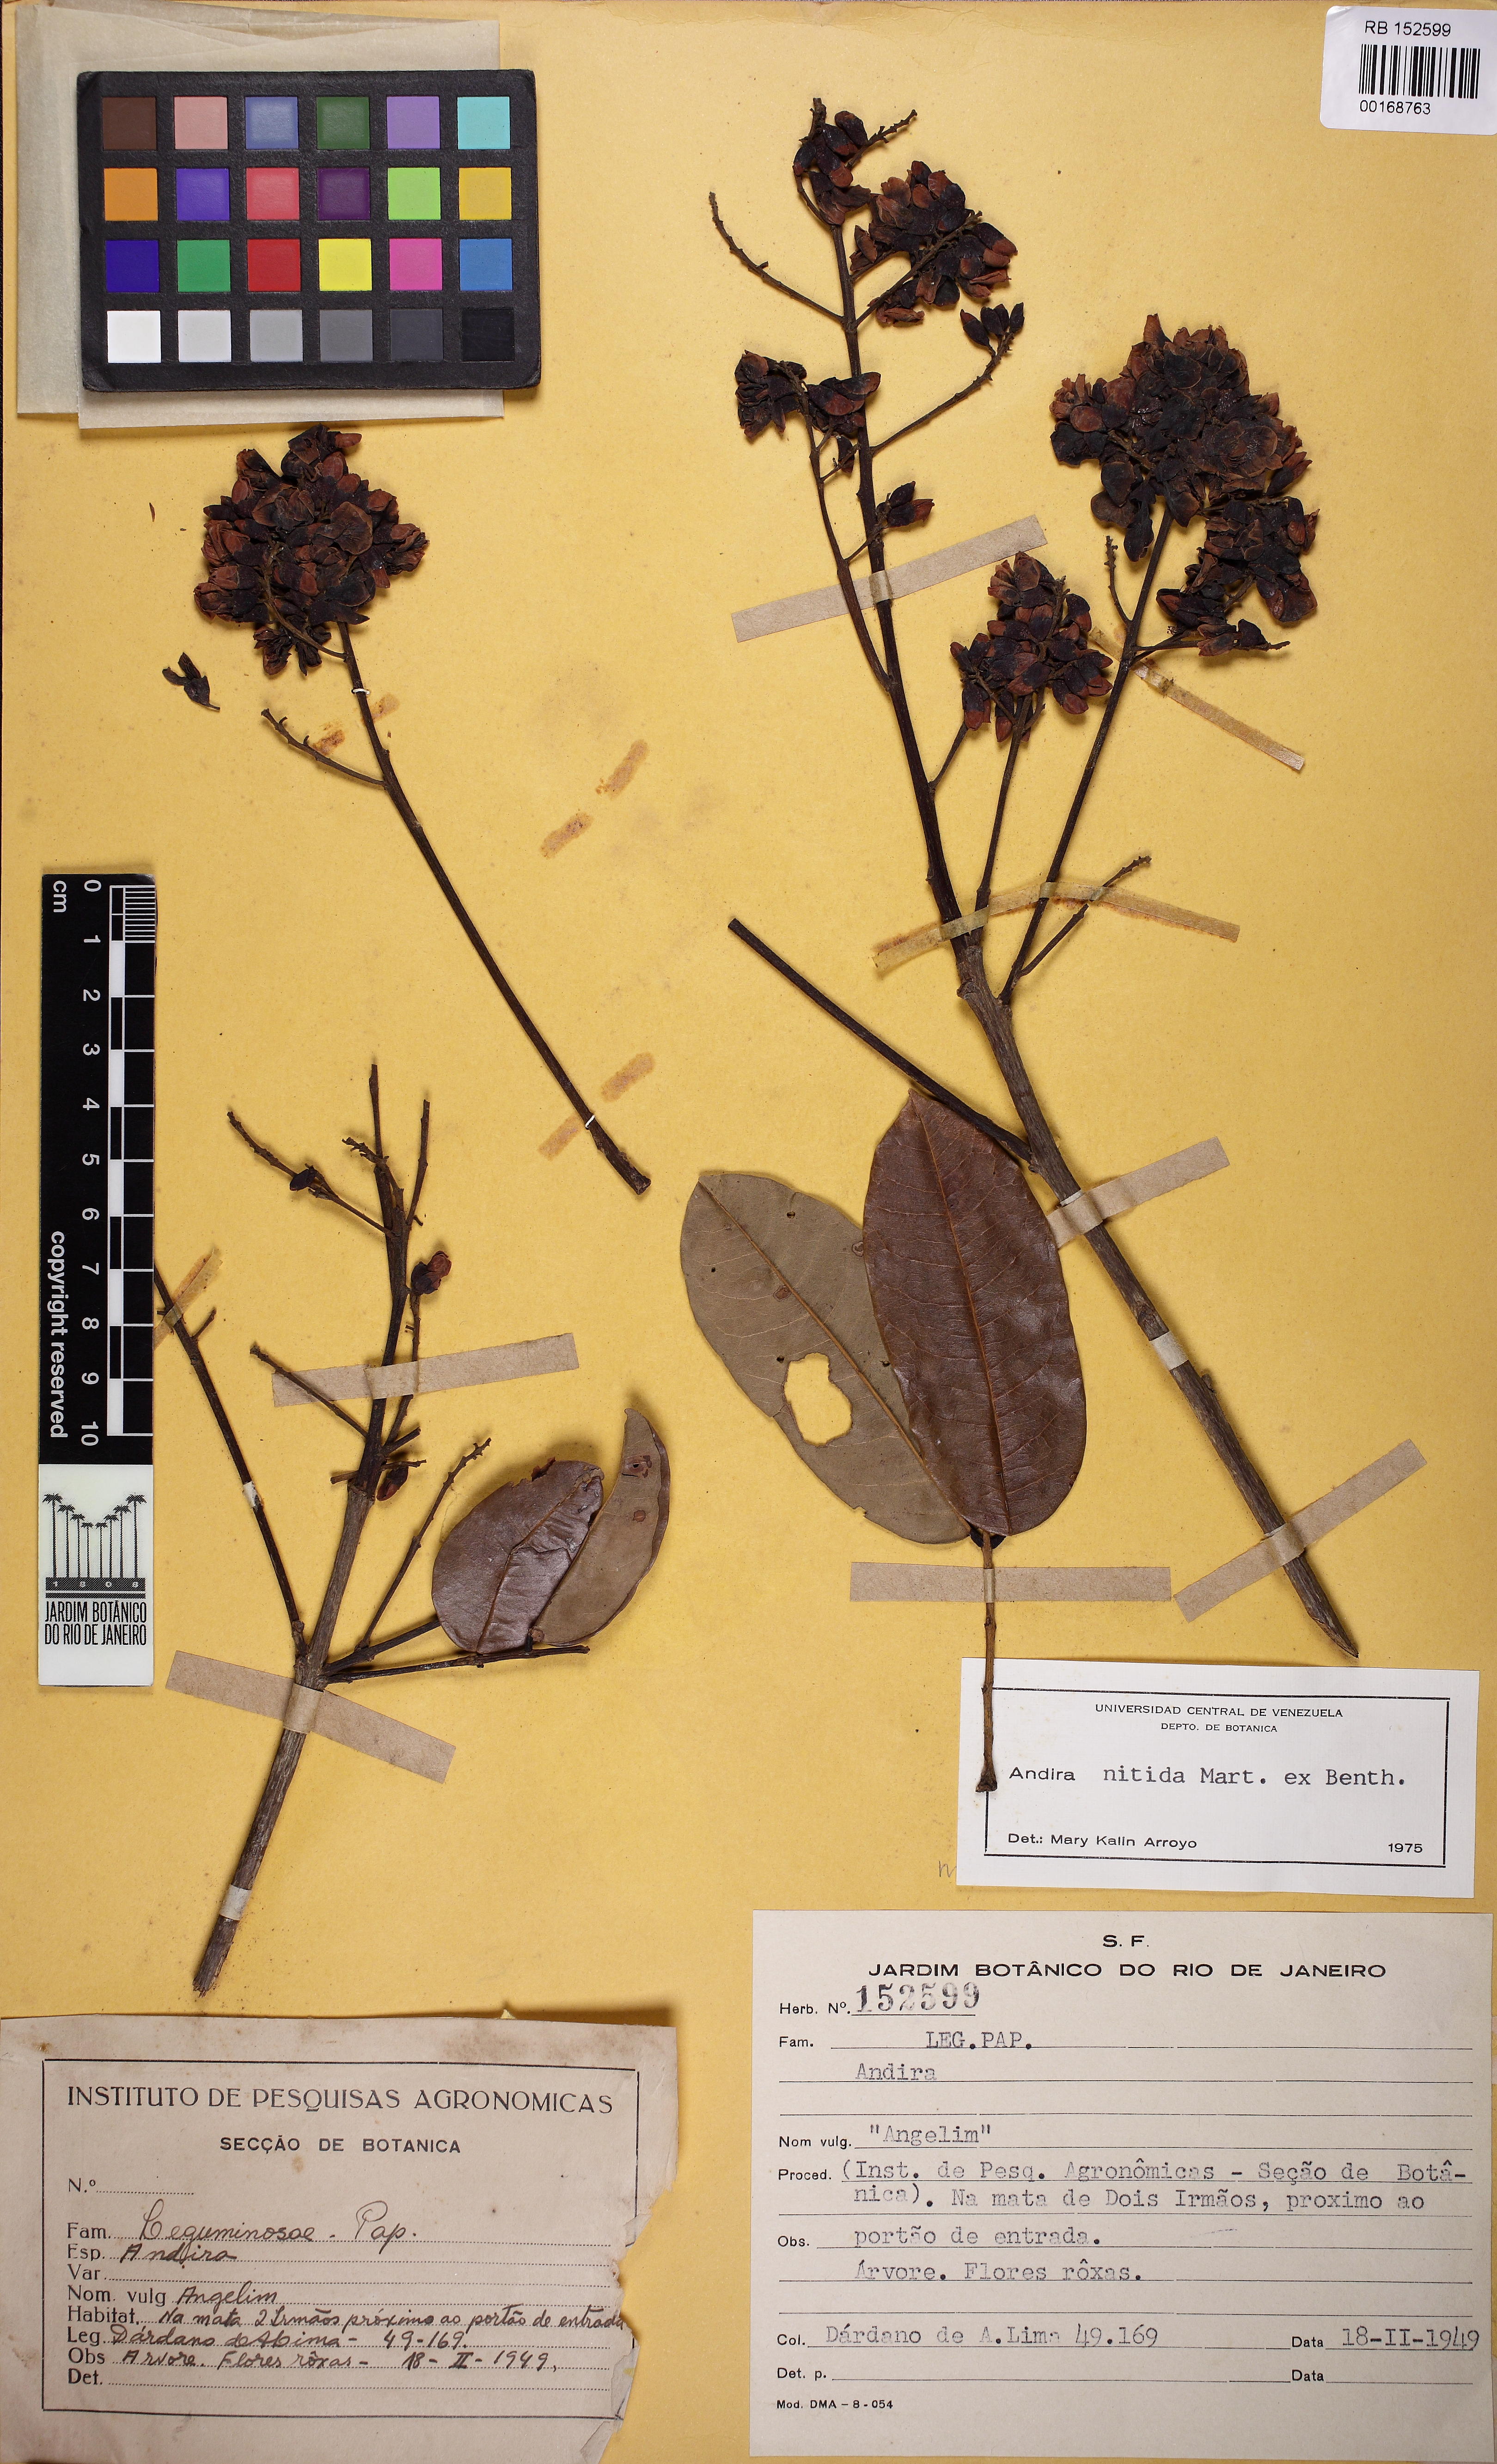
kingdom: Plantae
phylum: Tracheophyta
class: Magnoliopsida
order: Fabales
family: Fabaceae
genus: Andira
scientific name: Andira nitida
